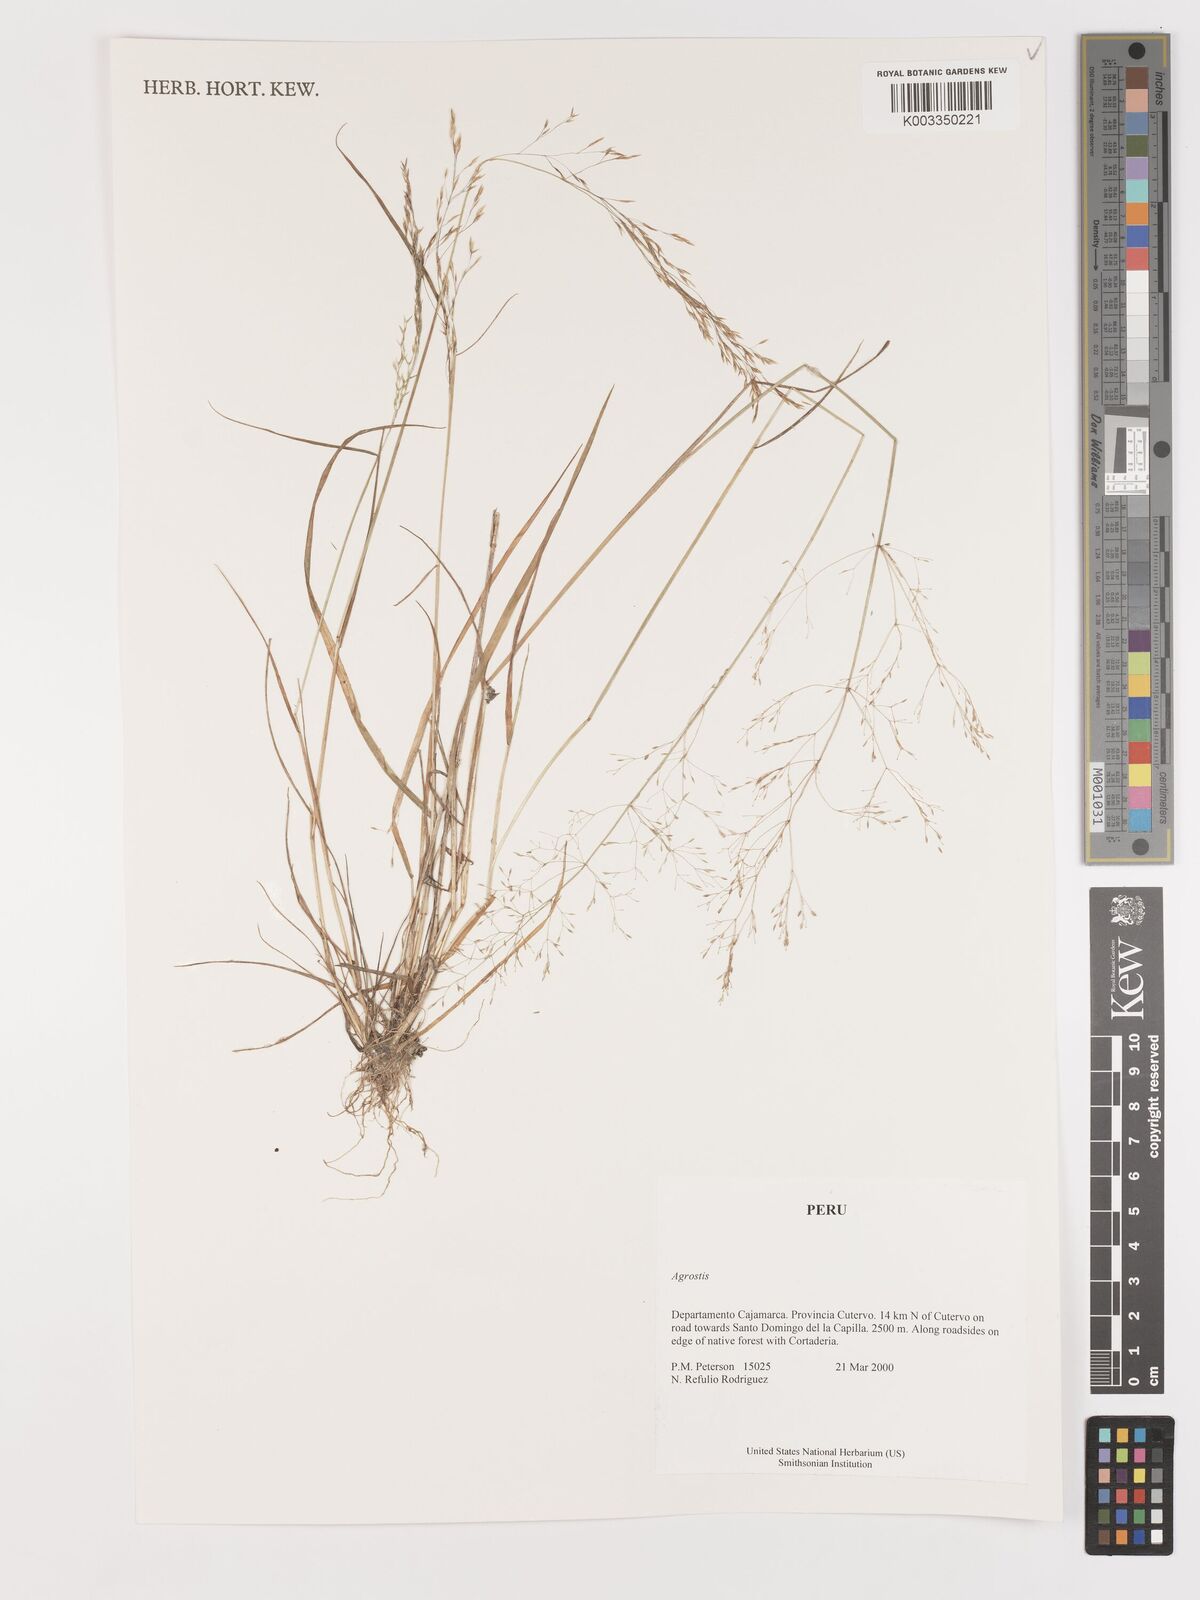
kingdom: Plantae
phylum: Tracheophyta
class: Liliopsida
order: Poales
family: Poaceae
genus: Agrostis
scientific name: Agrostis
